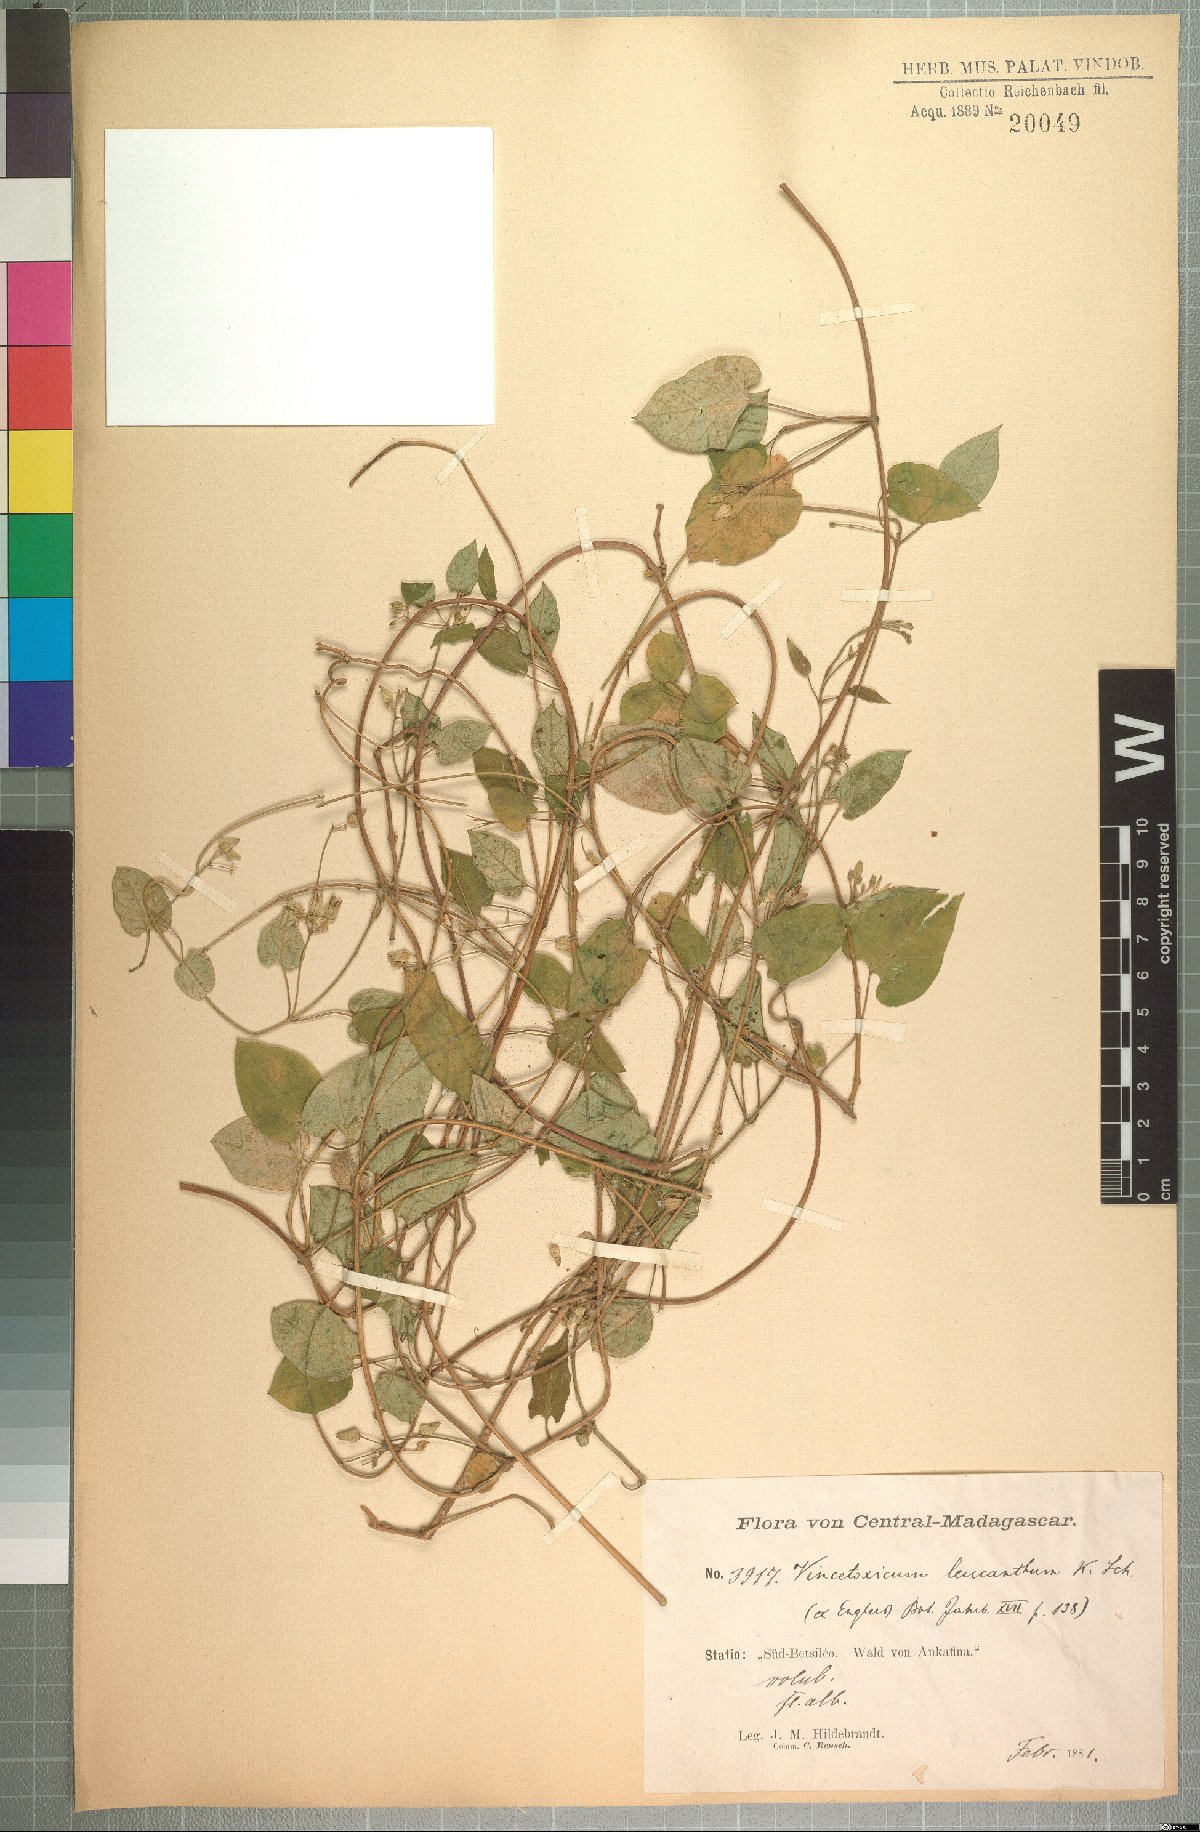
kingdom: Plantae
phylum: Tracheophyta
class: Magnoliopsida
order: Gentianales
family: Apocynaceae
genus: Cynanchum
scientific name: Cynanchum leucanthum
